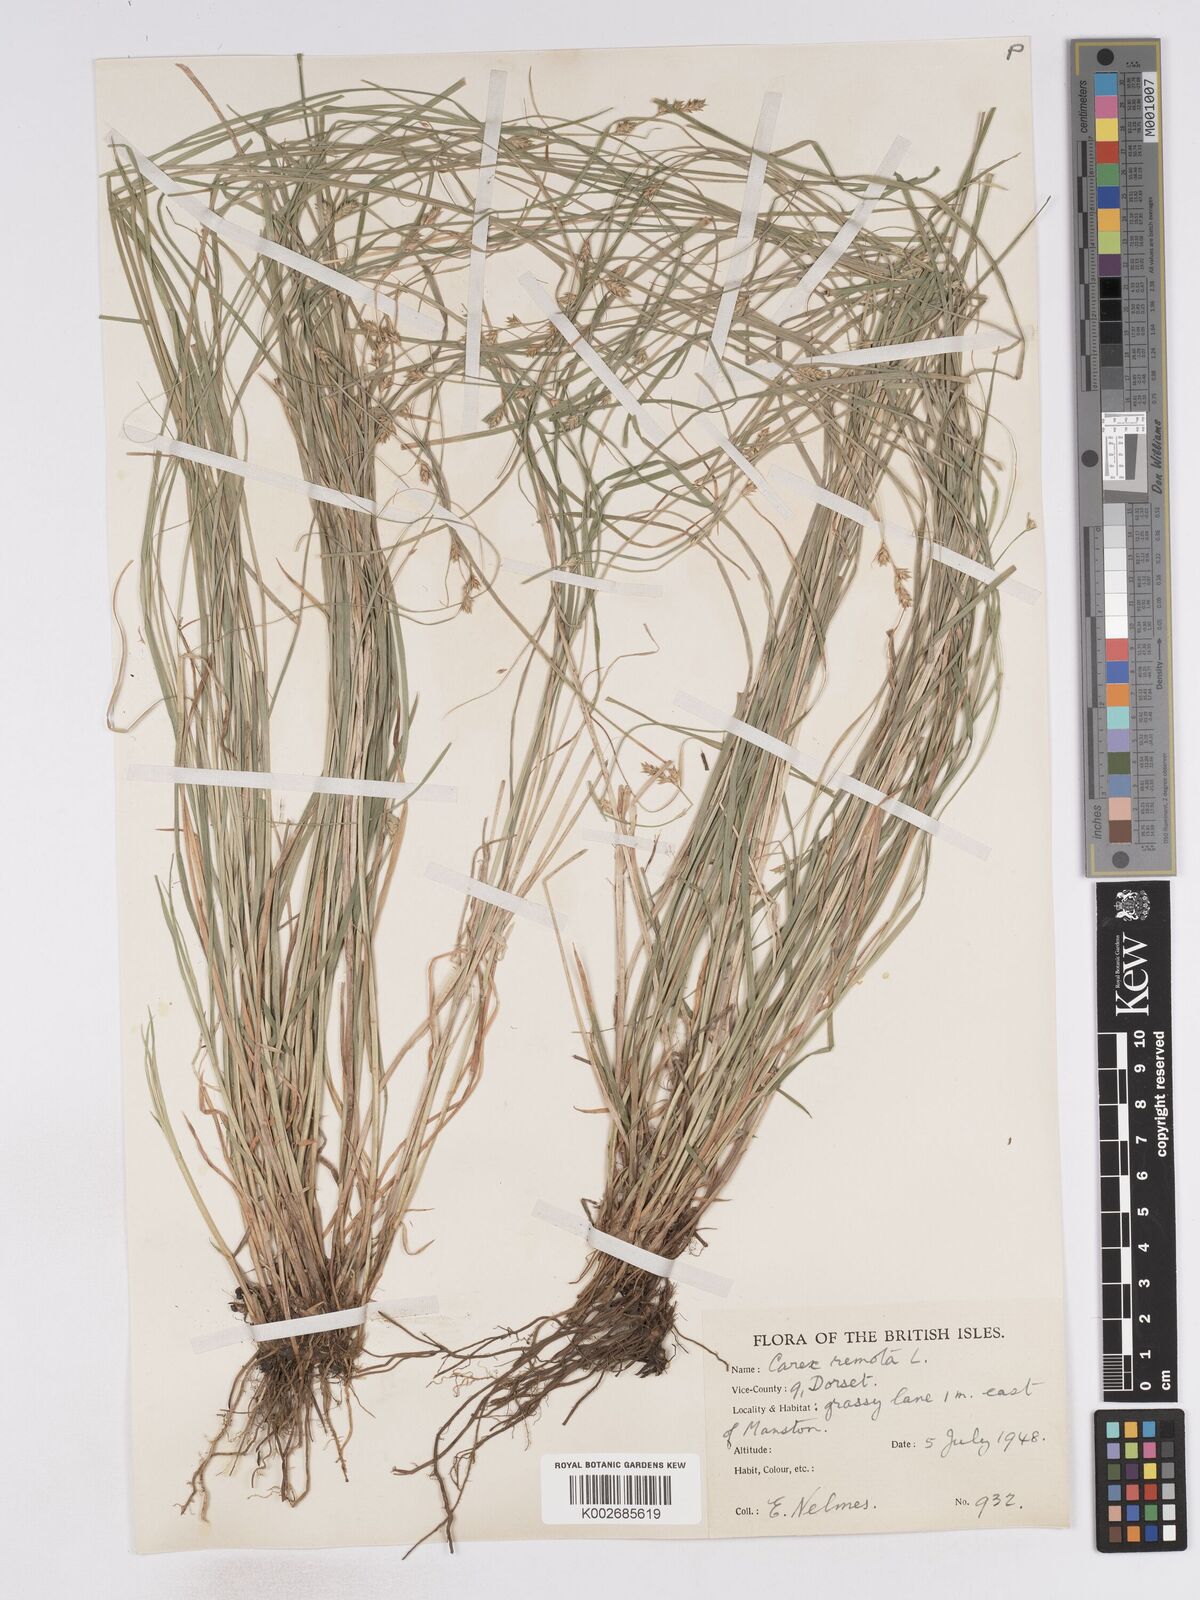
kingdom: Plantae
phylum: Tracheophyta
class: Liliopsida
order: Poales
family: Cyperaceae
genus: Carex
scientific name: Carex remota
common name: Remote sedge
